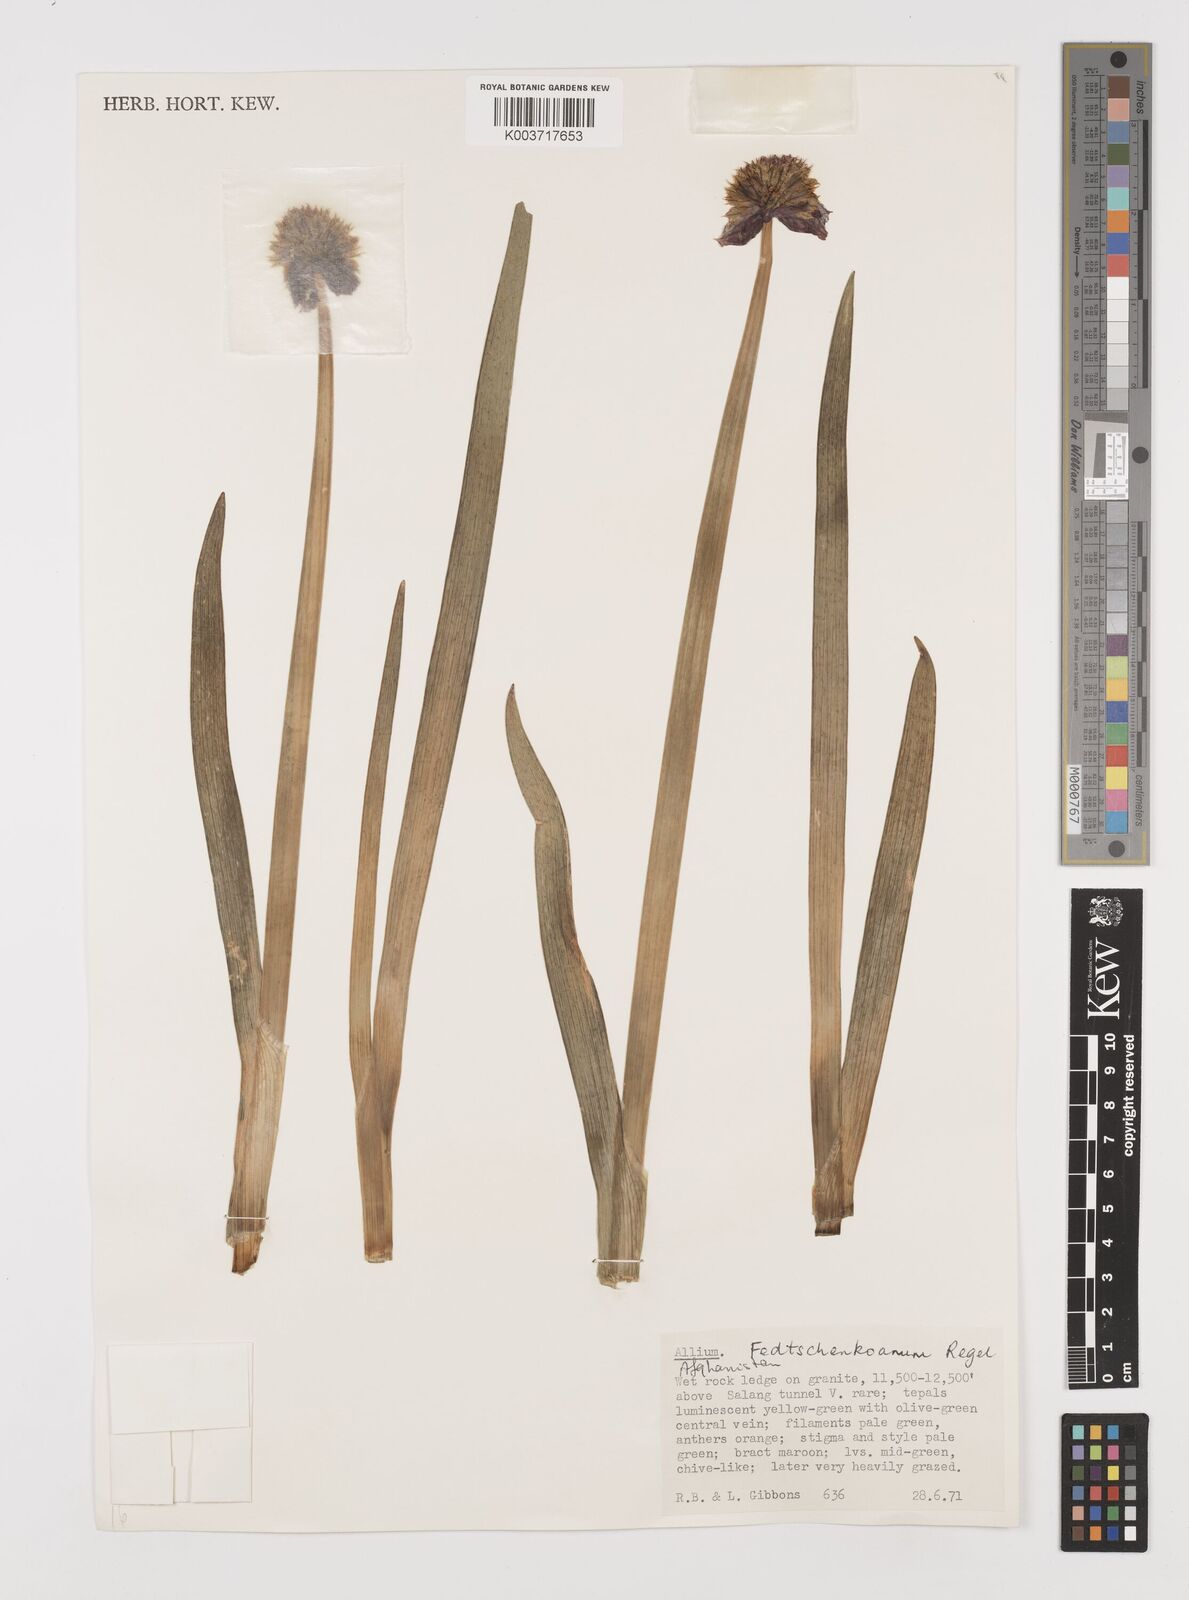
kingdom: Plantae
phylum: Tracheophyta
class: Liliopsida
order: Asparagales
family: Amaryllidaceae
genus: Allium
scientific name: Allium atrosanguineum
